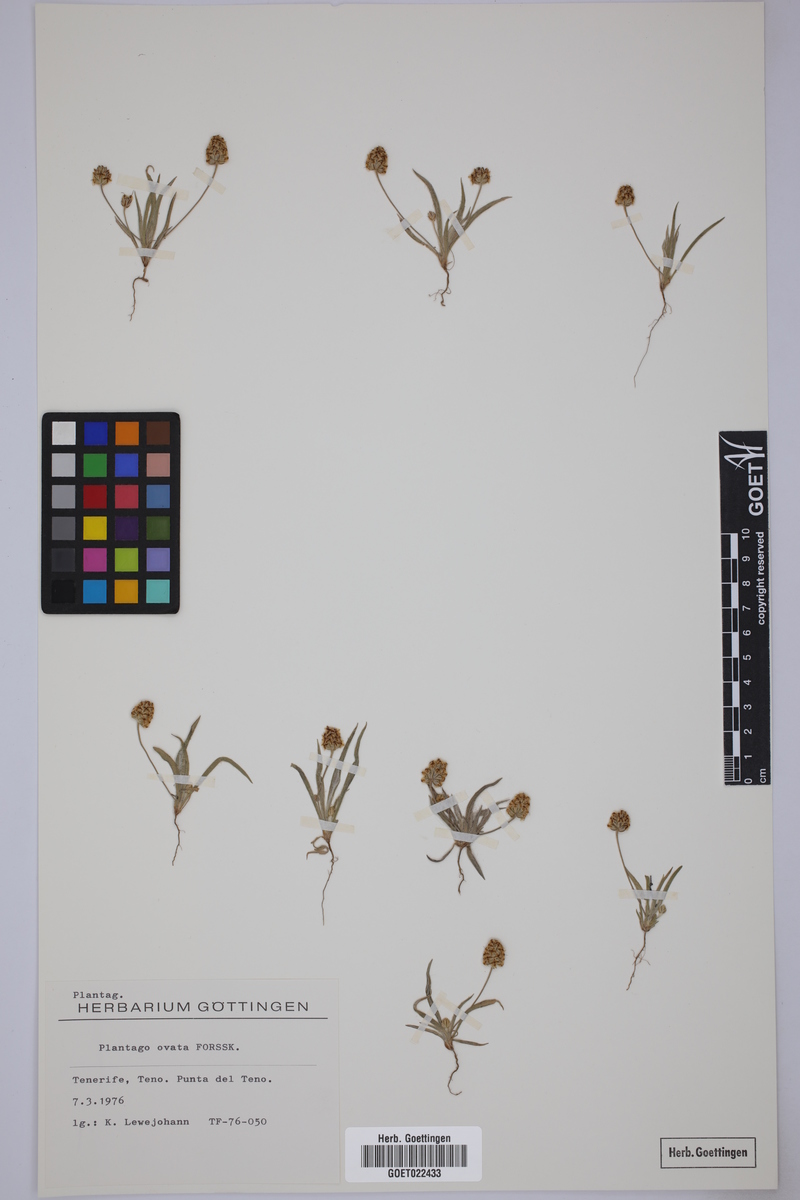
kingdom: Plantae
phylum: Tracheophyta
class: Magnoliopsida
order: Lamiales
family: Plantaginaceae
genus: Plantago
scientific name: Plantago ovata
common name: Blond plantain
